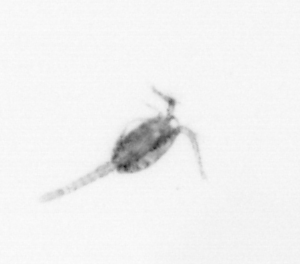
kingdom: Animalia
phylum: Arthropoda
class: Copepoda
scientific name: Copepoda
